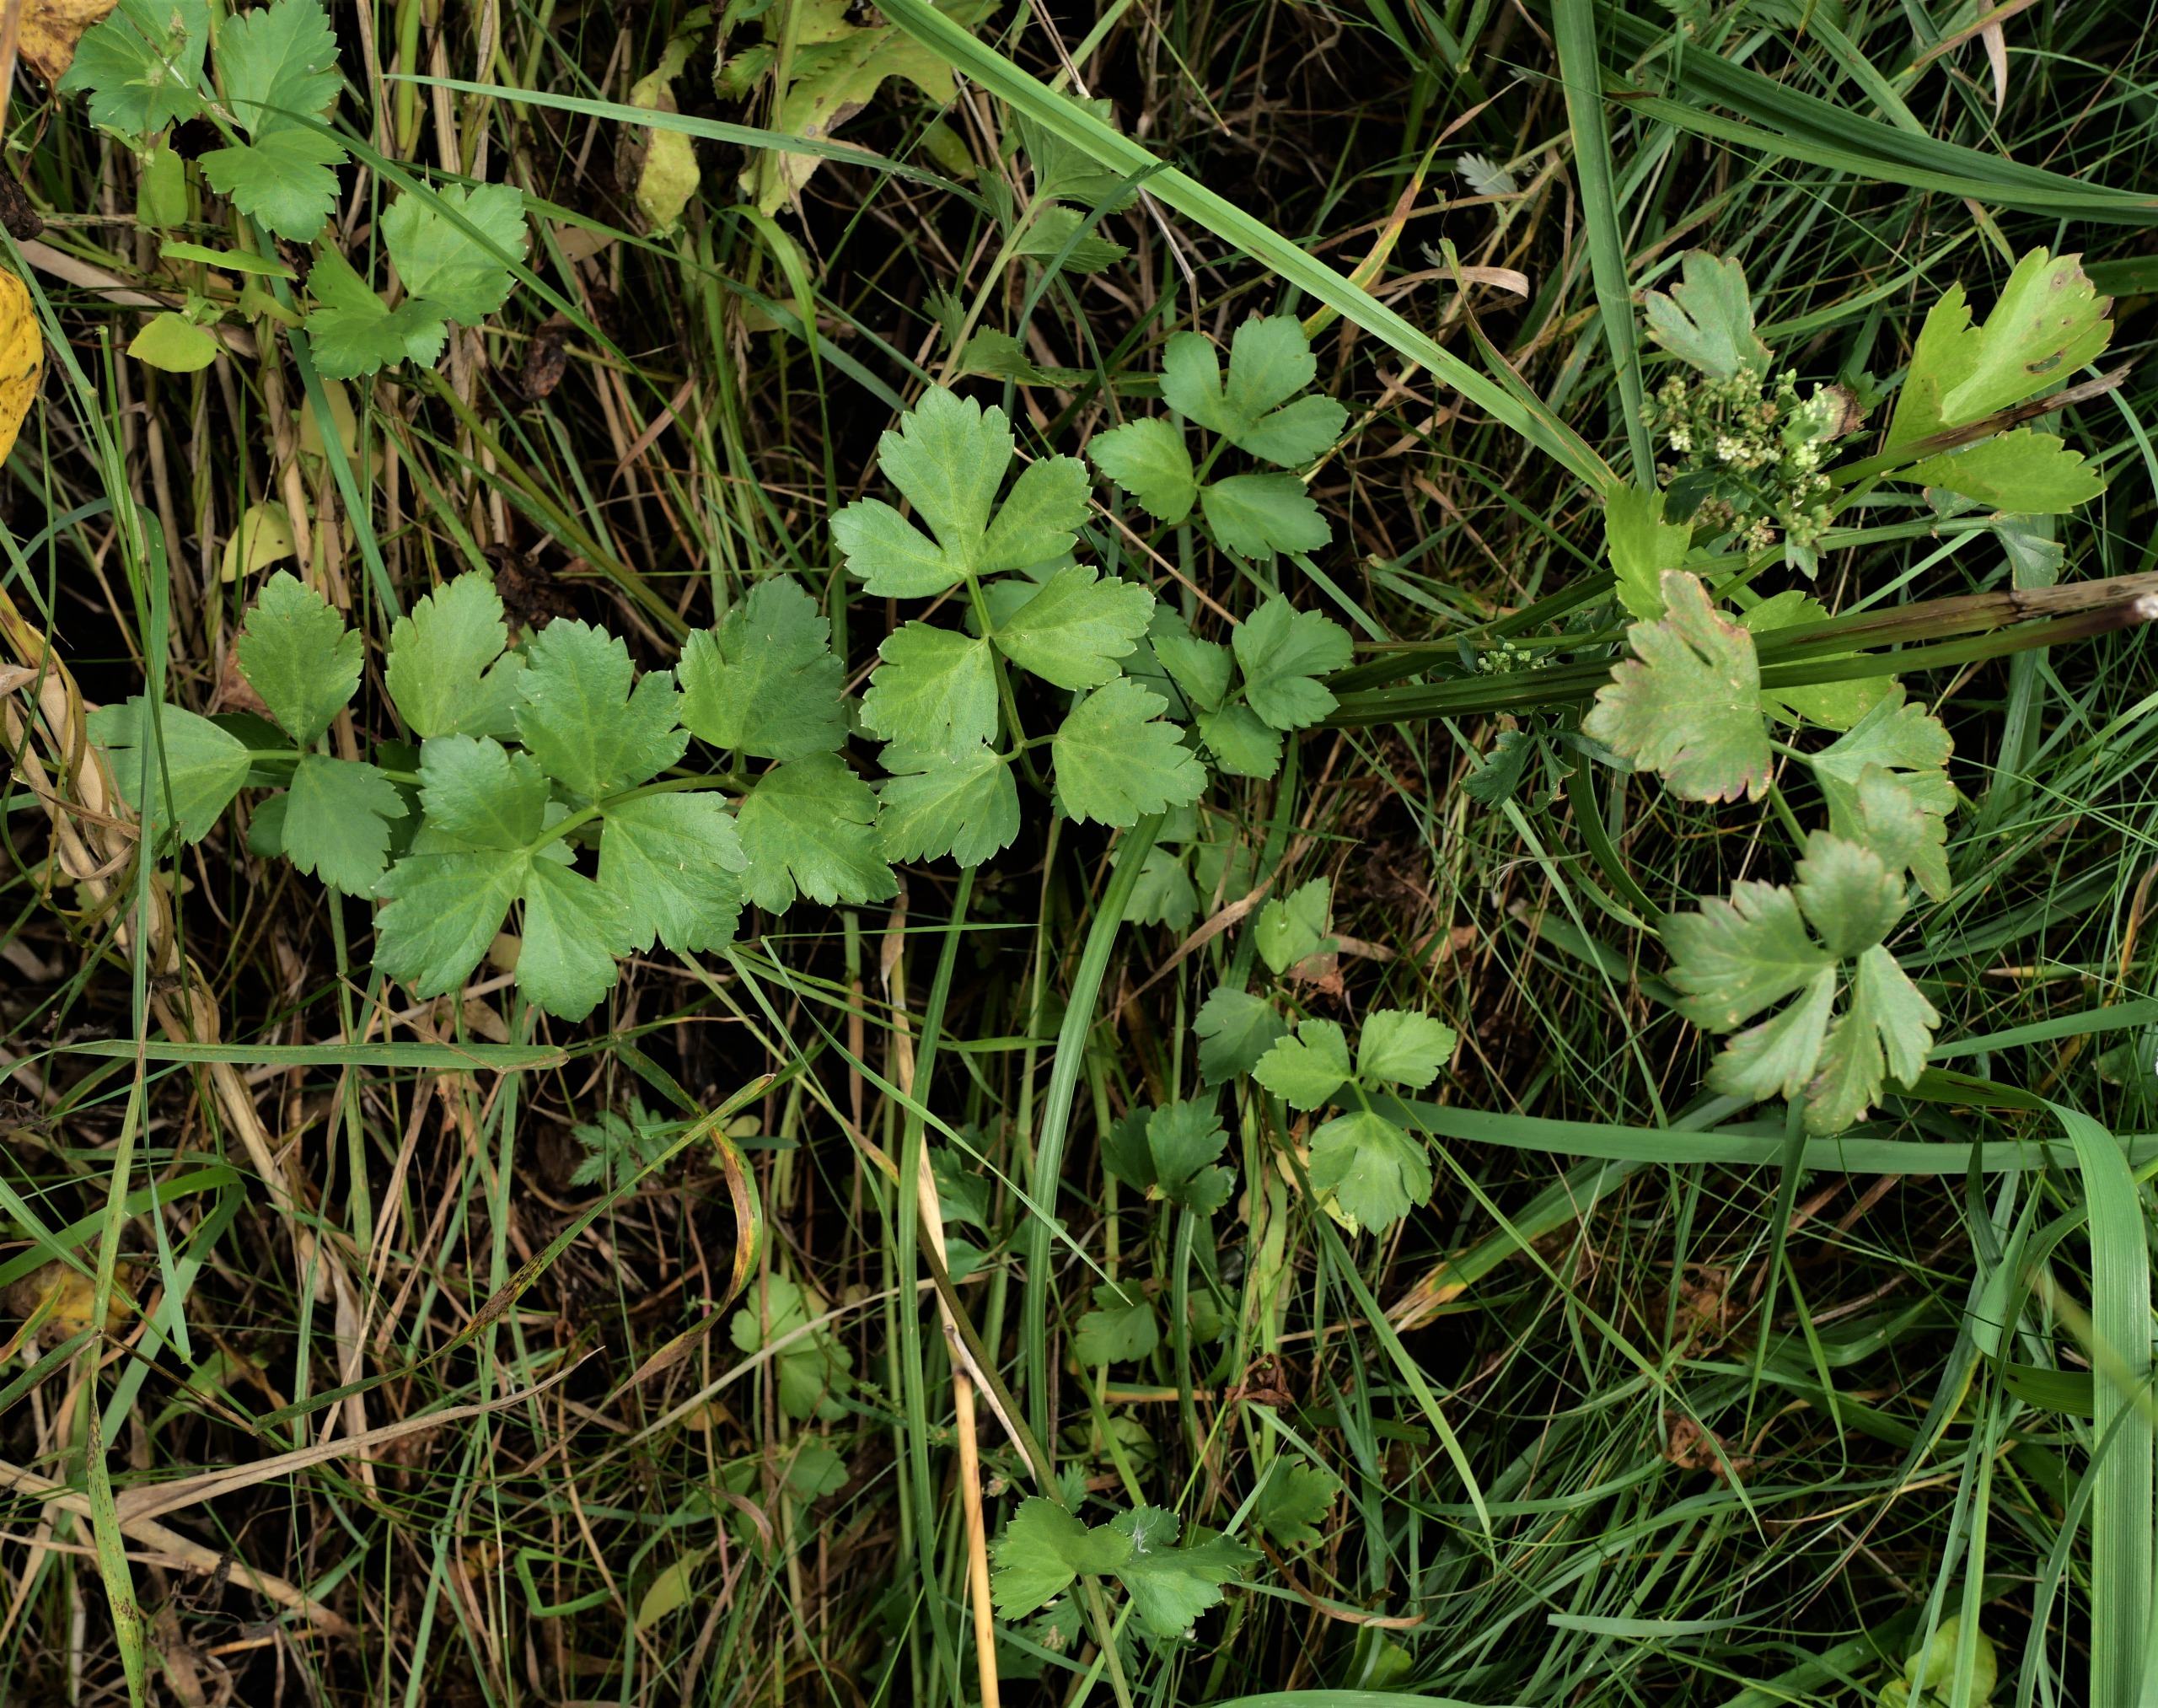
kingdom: Plantae
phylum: Tracheophyta
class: Magnoliopsida
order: Apiales
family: Apiaceae
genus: Apium
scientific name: Apium graveolens
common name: Vild selleri
